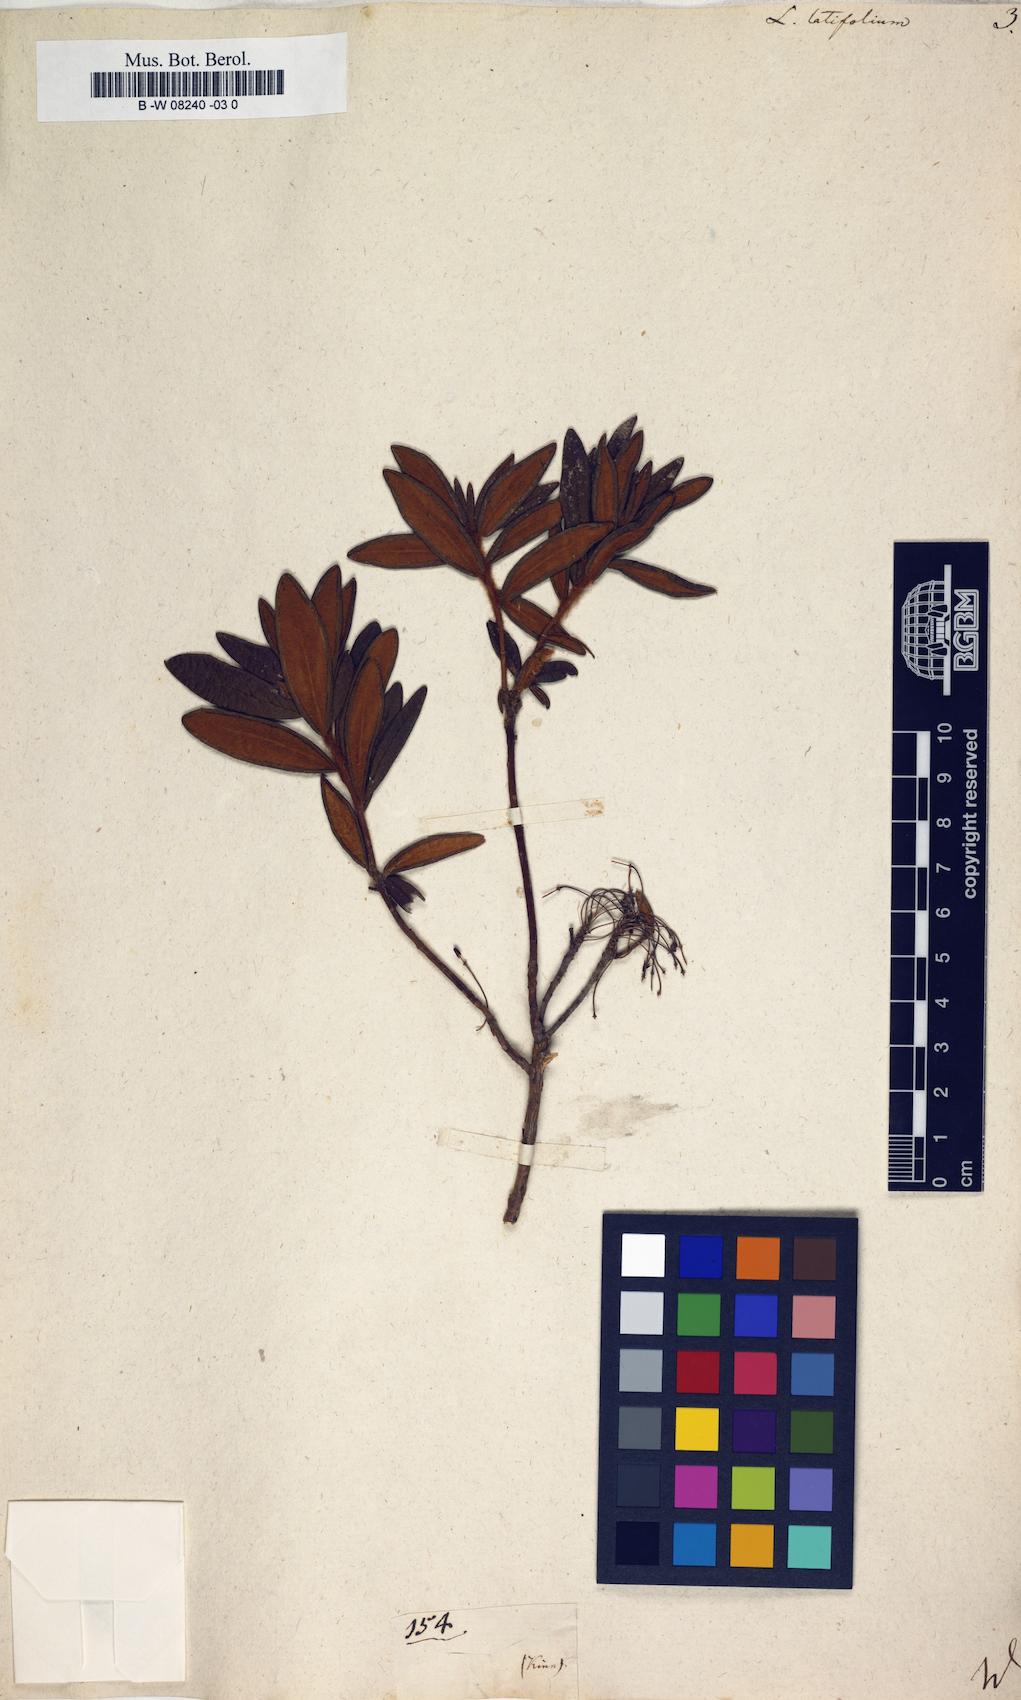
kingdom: Plantae
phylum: Tracheophyta
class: Magnoliopsida
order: Ericales
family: Ericaceae
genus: Rhododendron
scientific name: Rhododendron groenlandicum
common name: Bog labrador tea
